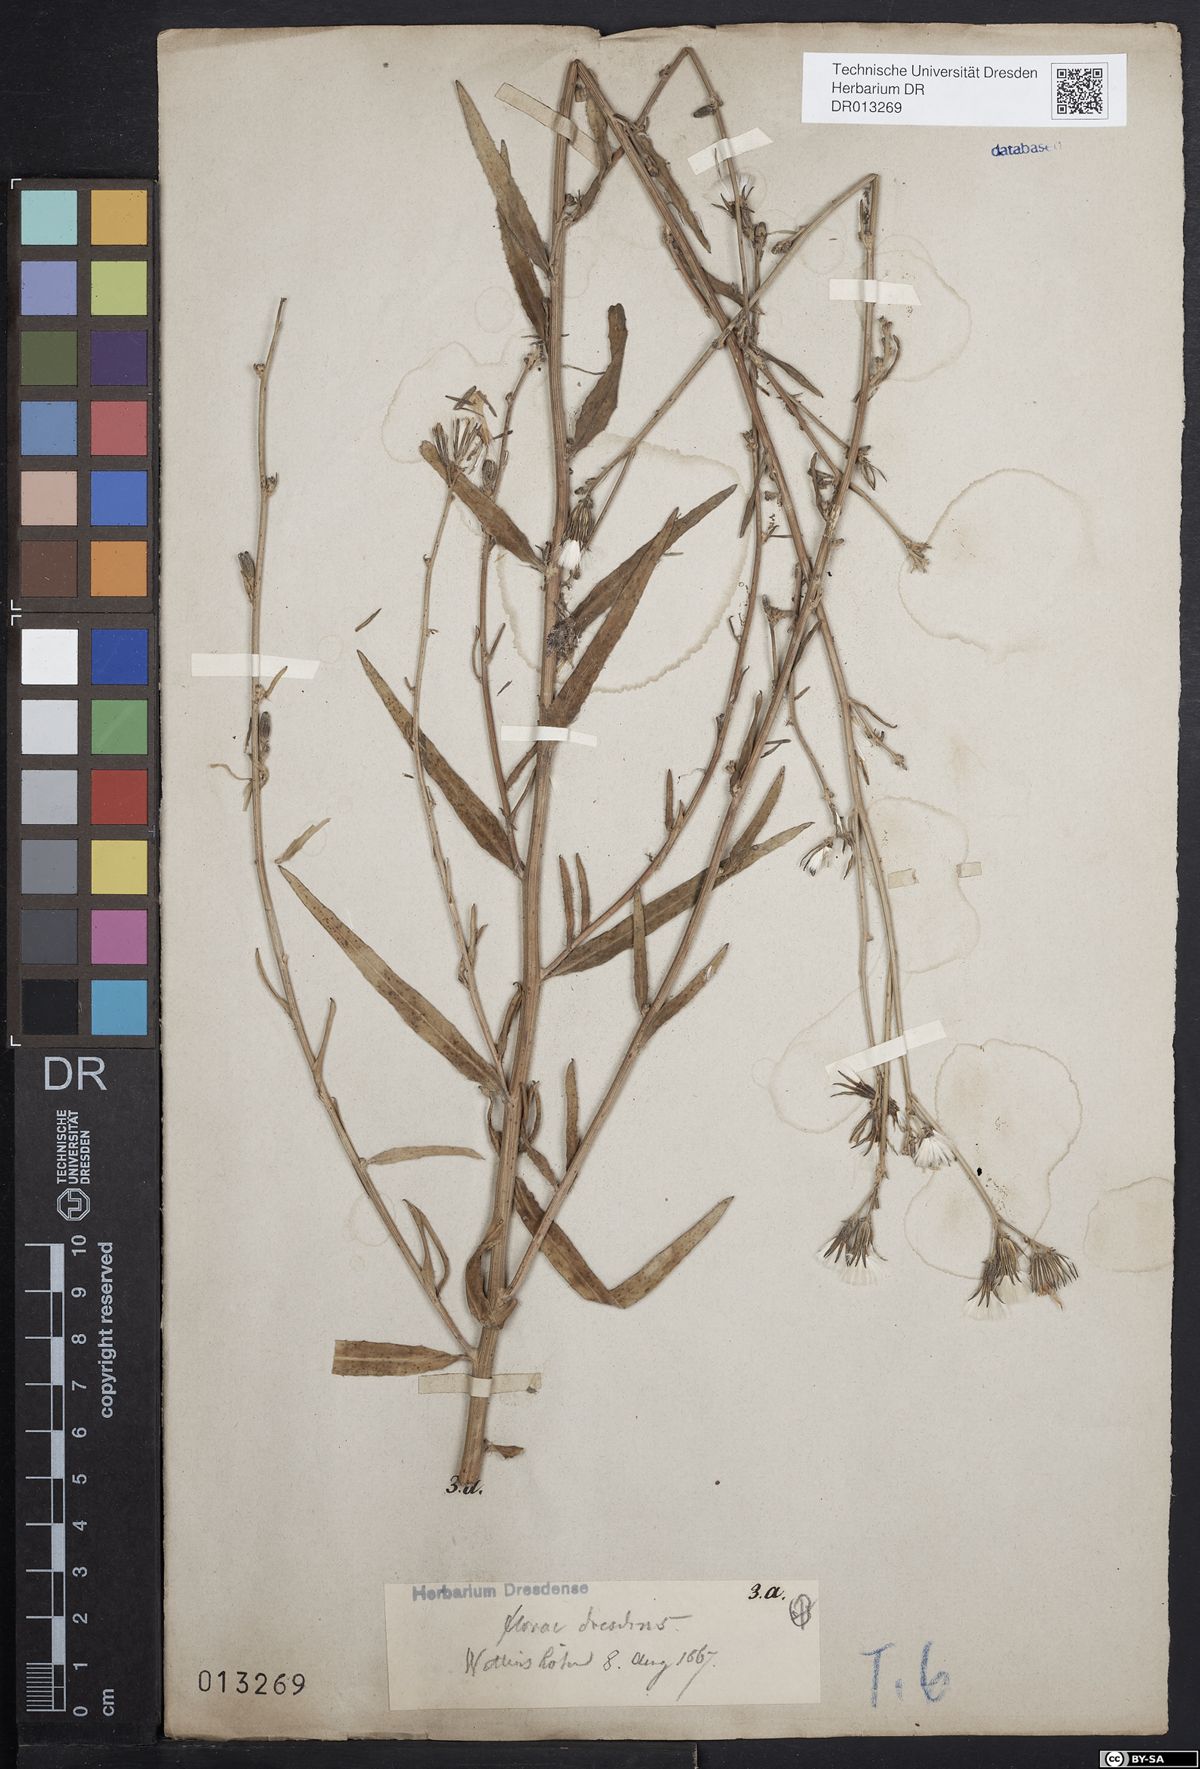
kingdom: Plantae
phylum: Tracheophyta
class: Magnoliopsida
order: Asterales
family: Asteraceae
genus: Chondrilla
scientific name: Chondrilla juncea
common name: Skeleton weed
